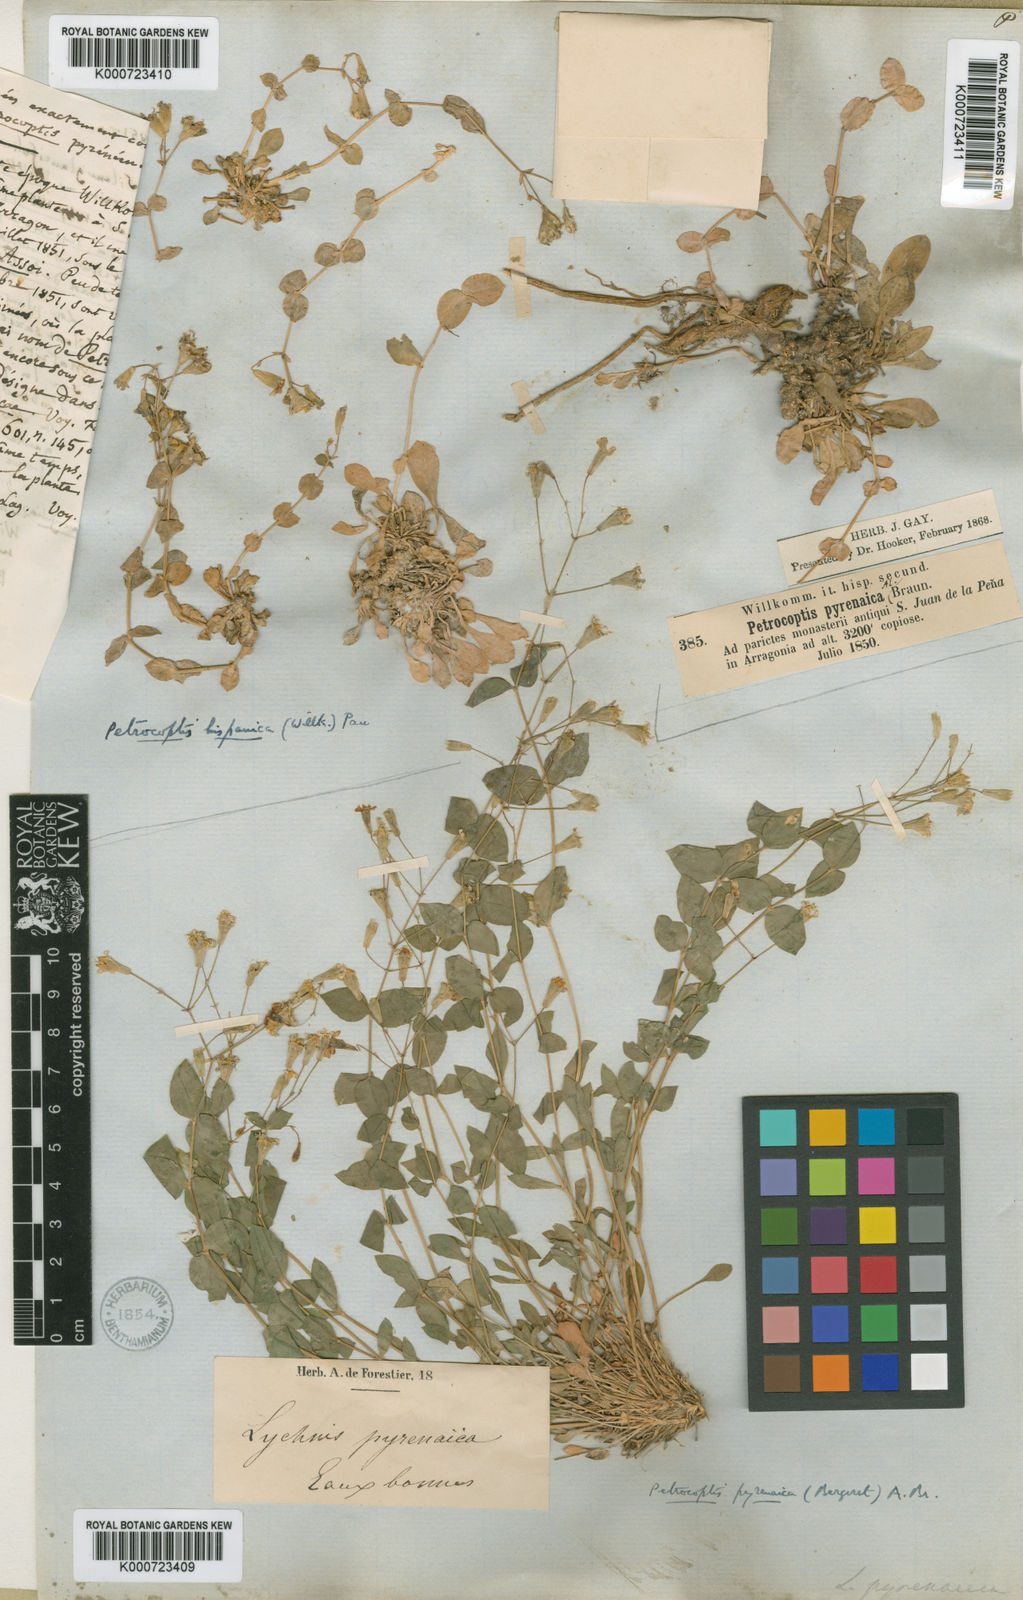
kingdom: Plantae
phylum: Tracheophyta
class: Magnoliopsida
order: Caryophyllales
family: Caryophyllaceae
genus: Petrocoptis
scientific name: Petrocoptis glaucifolia
